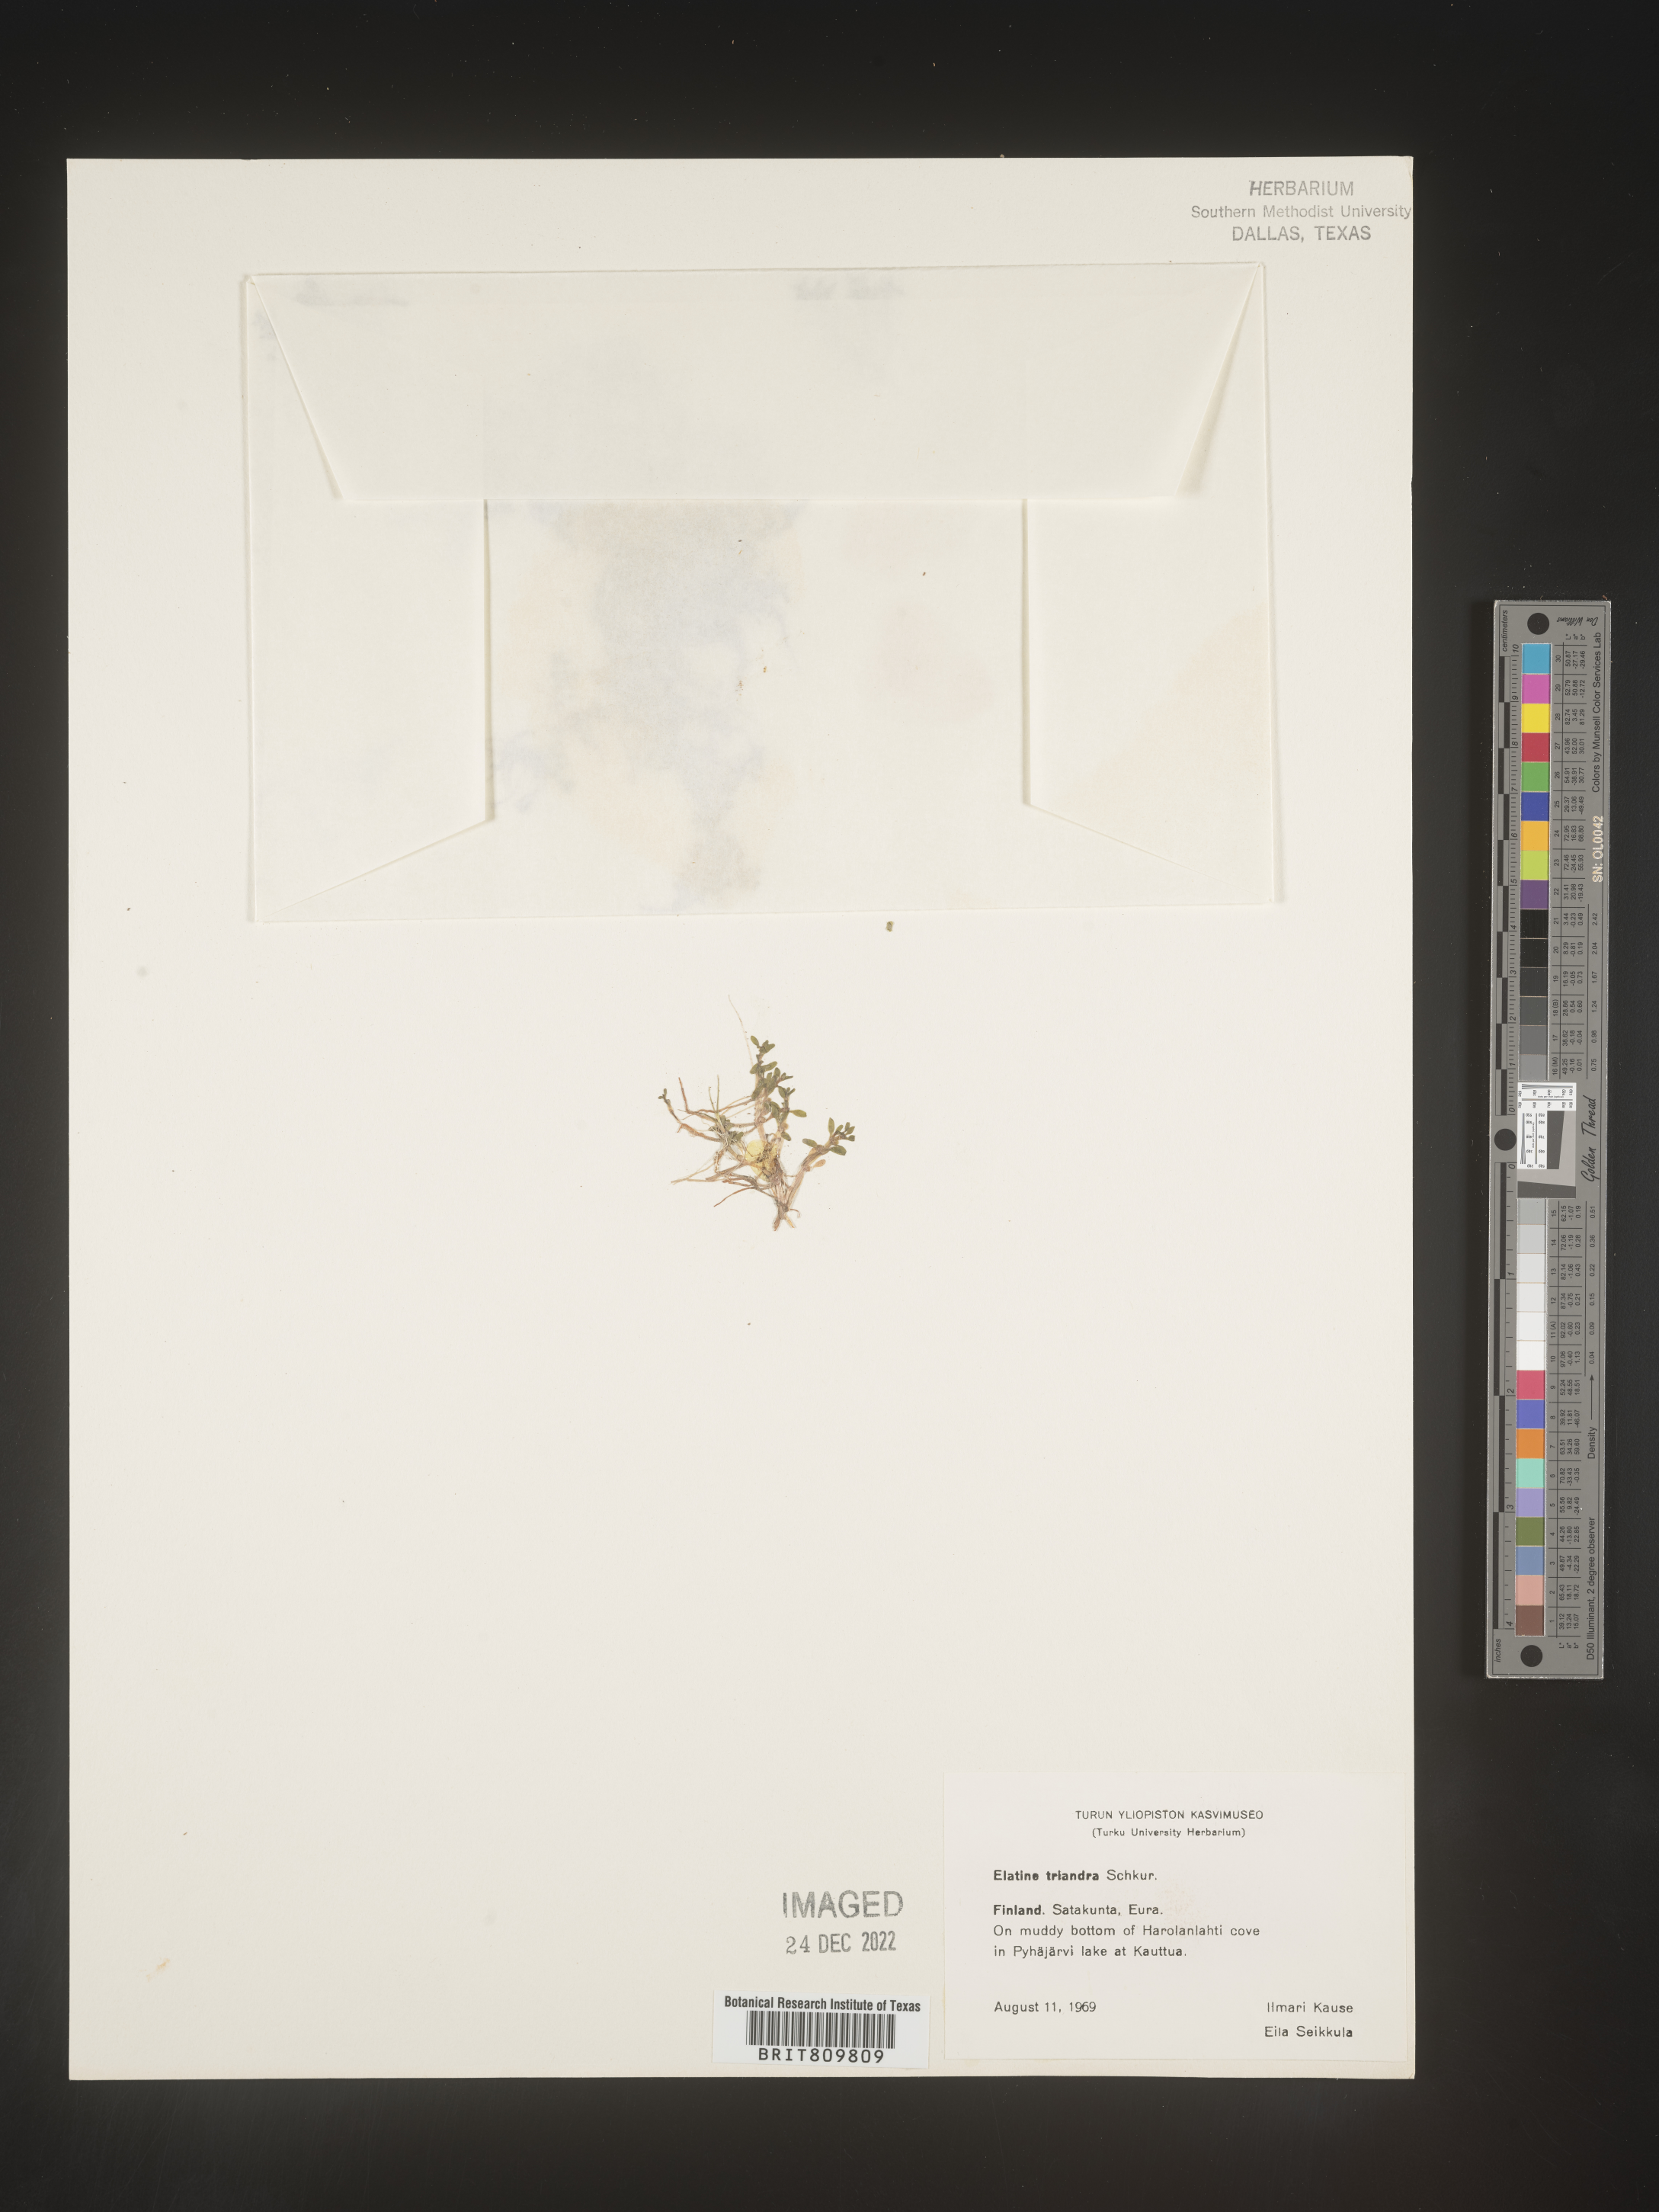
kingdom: Plantae
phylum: Tracheophyta
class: Magnoliopsida
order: Malpighiales
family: Elatinaceae
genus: Elatine
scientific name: Elatine
